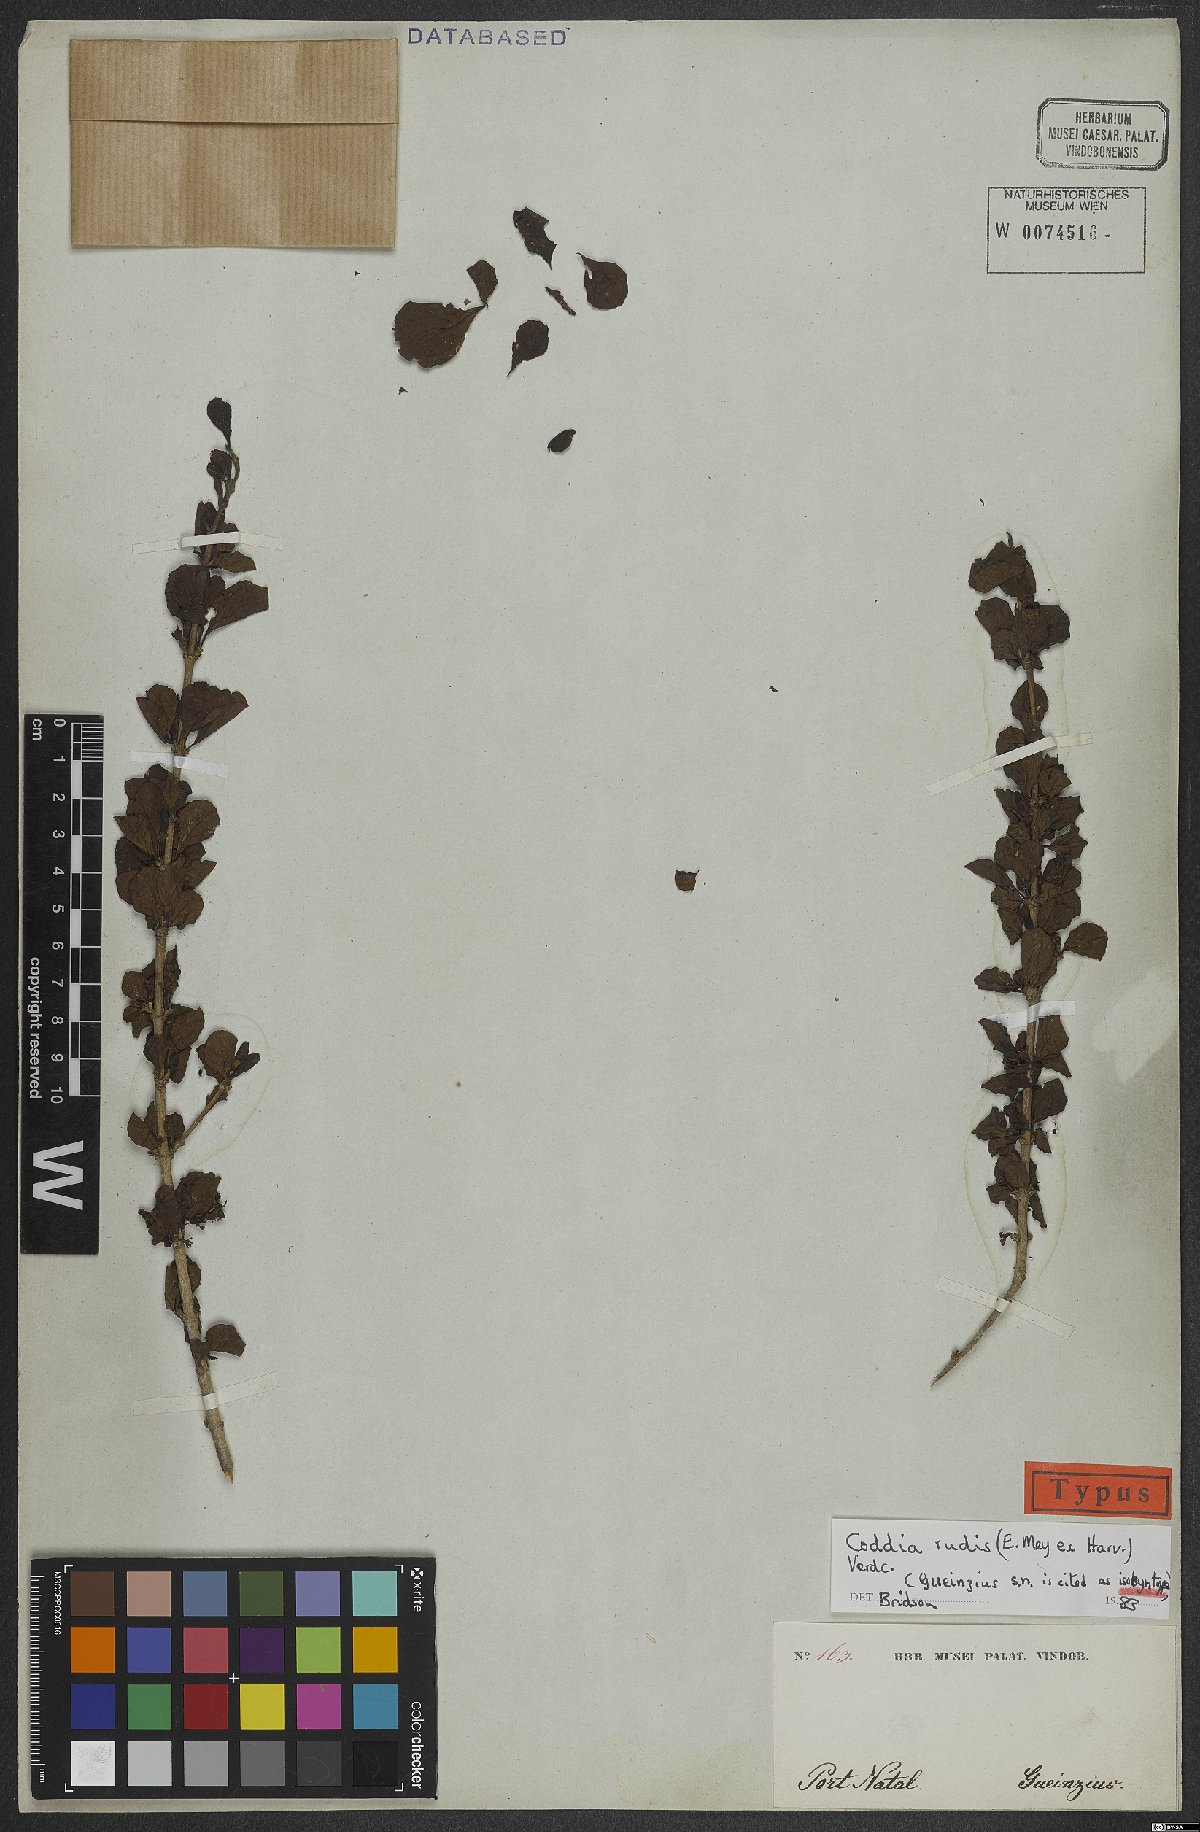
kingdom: Plantae
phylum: Tracheophyta
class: Magnoliopsida
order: Gentianales
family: Rubiaceae
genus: Coddia
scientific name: Coddia rudis
